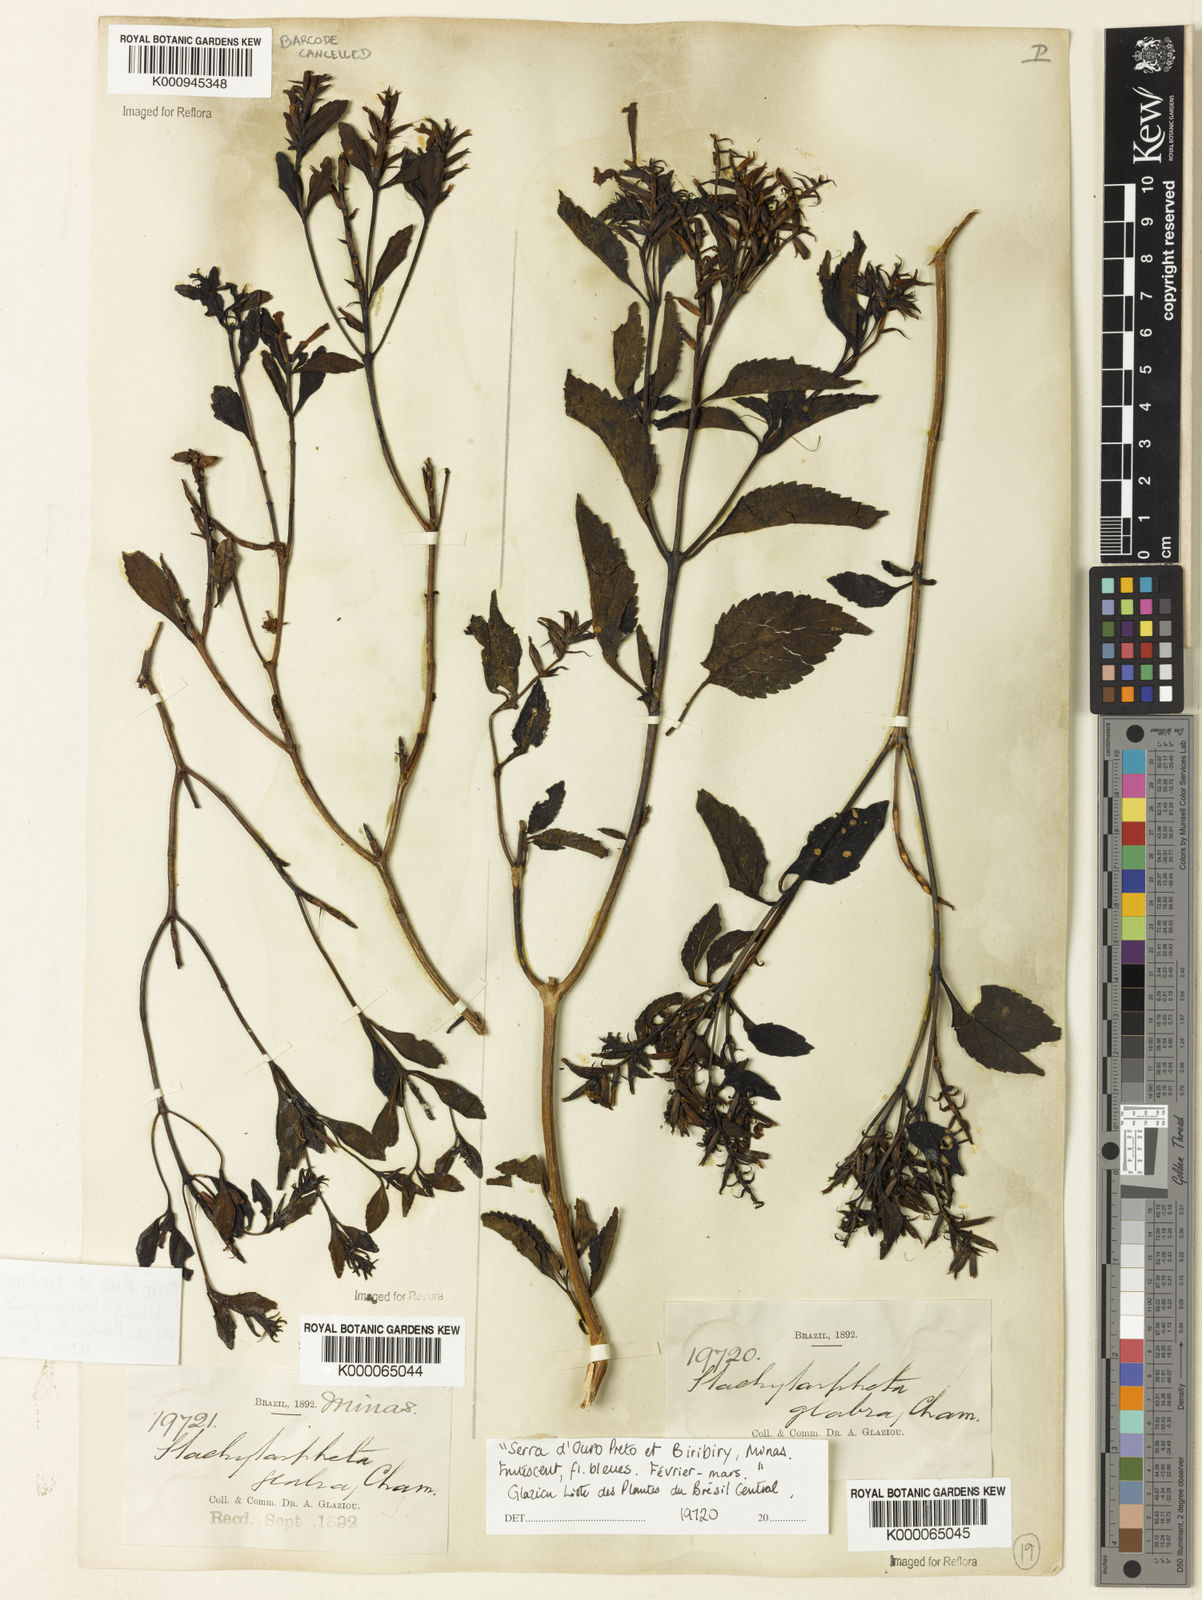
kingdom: Plantae
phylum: Tracheophyta
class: Magnoliopsida
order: Lamiales
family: Verbenaceae
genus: Stachytarpheta
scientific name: Stachytarpheta glabra
